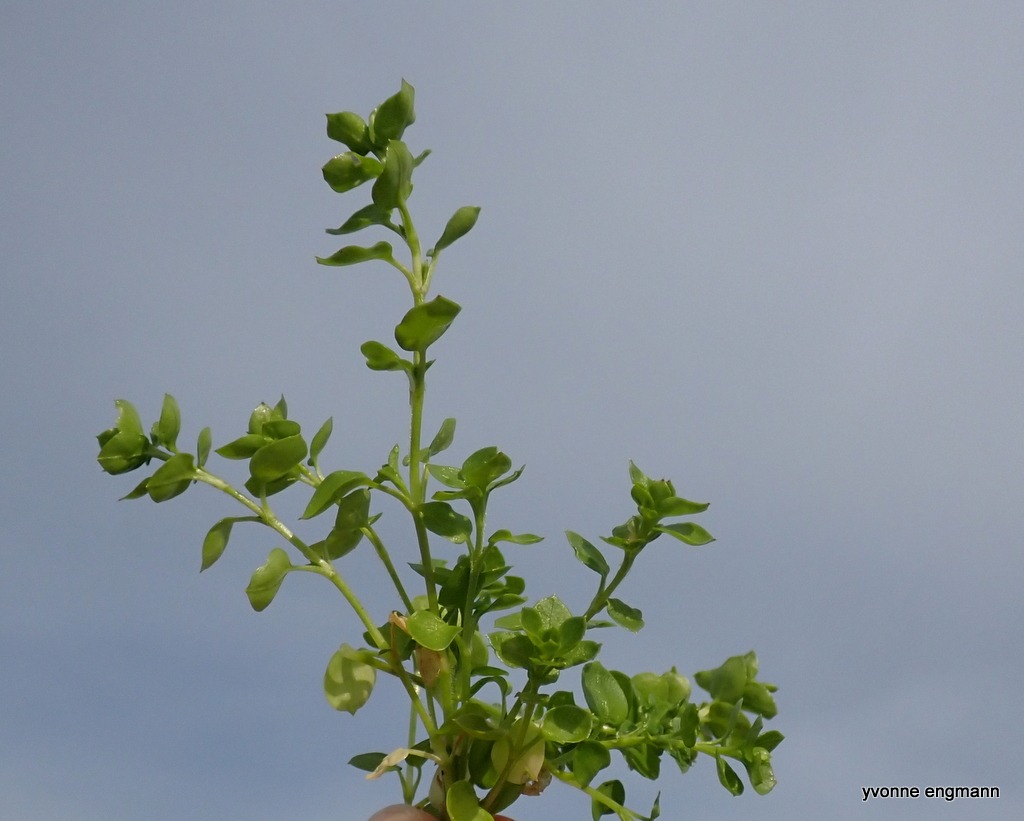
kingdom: Plantae
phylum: Tracheophyta
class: Magnoliopsida
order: Caryophyllales
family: Caryophyllaceae
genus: Stellaria
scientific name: Stellaria media
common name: Almindelig fuglegræs
